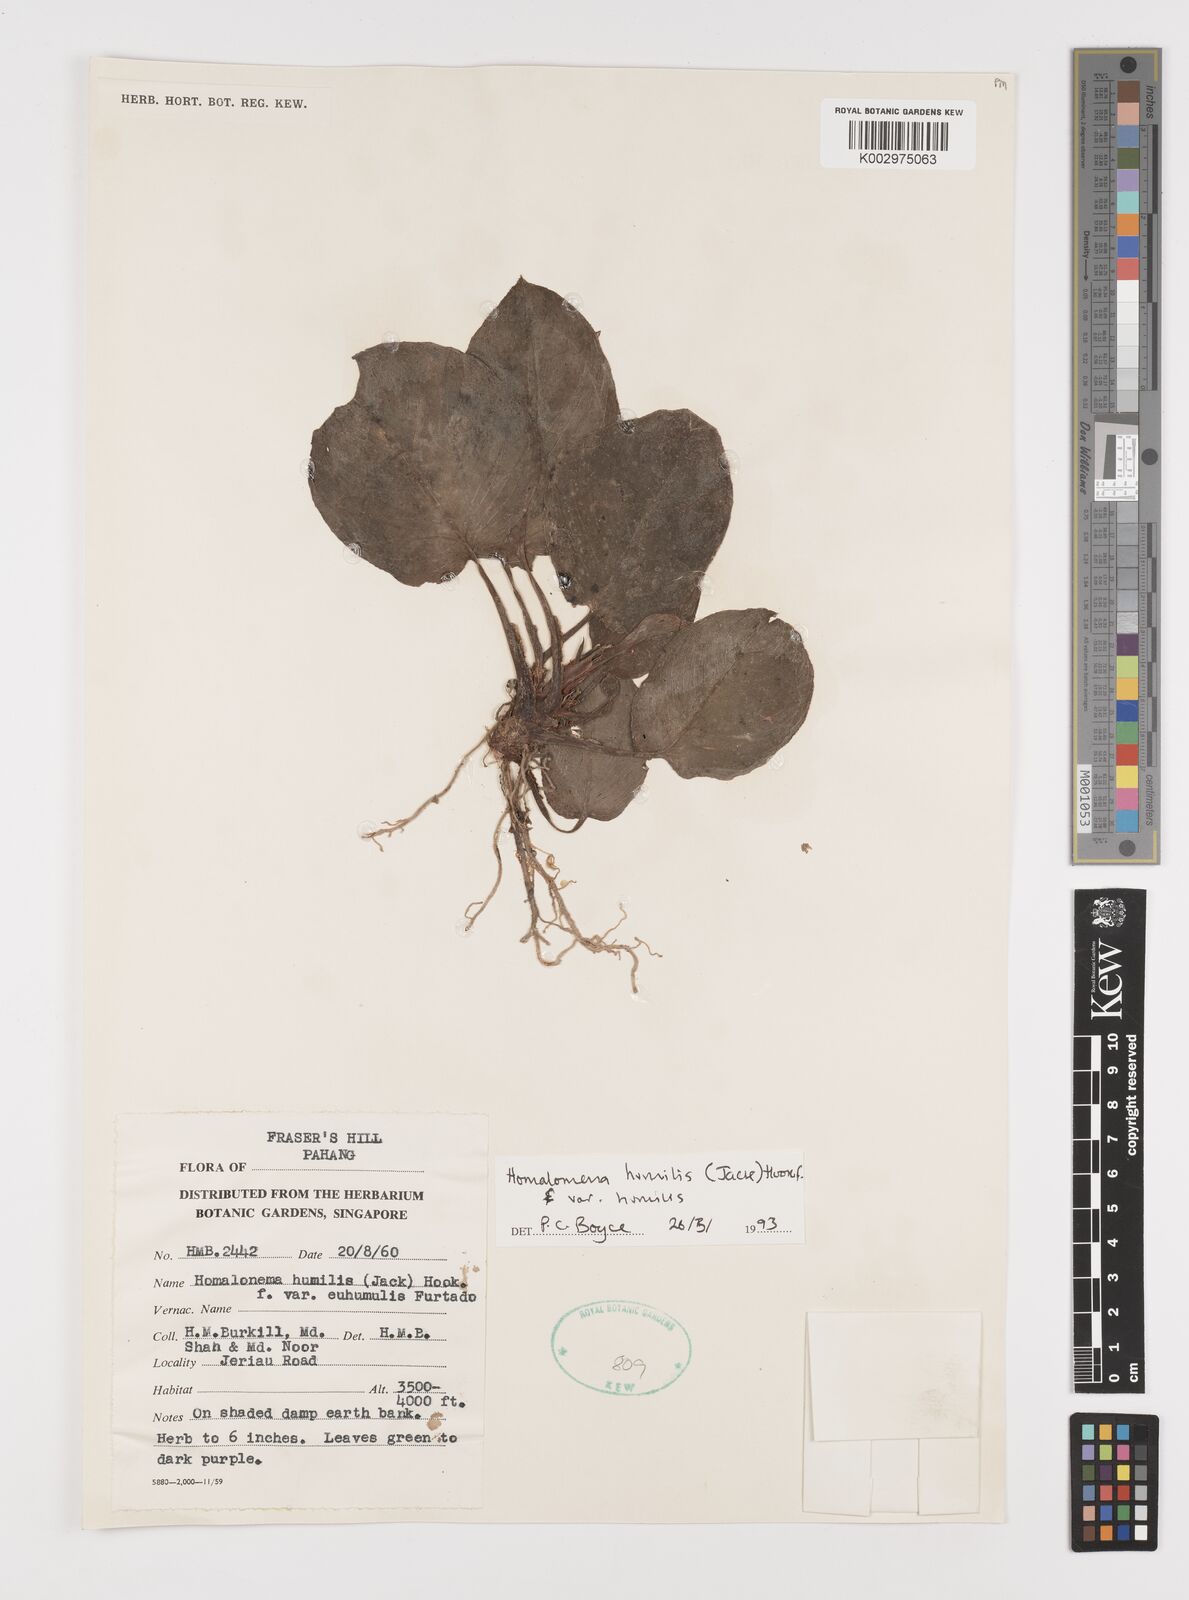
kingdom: Plantae
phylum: Tracheophyta
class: Liliopsida
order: Alismatales
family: Araceae
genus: Homalomena
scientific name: Homalomena humilis
